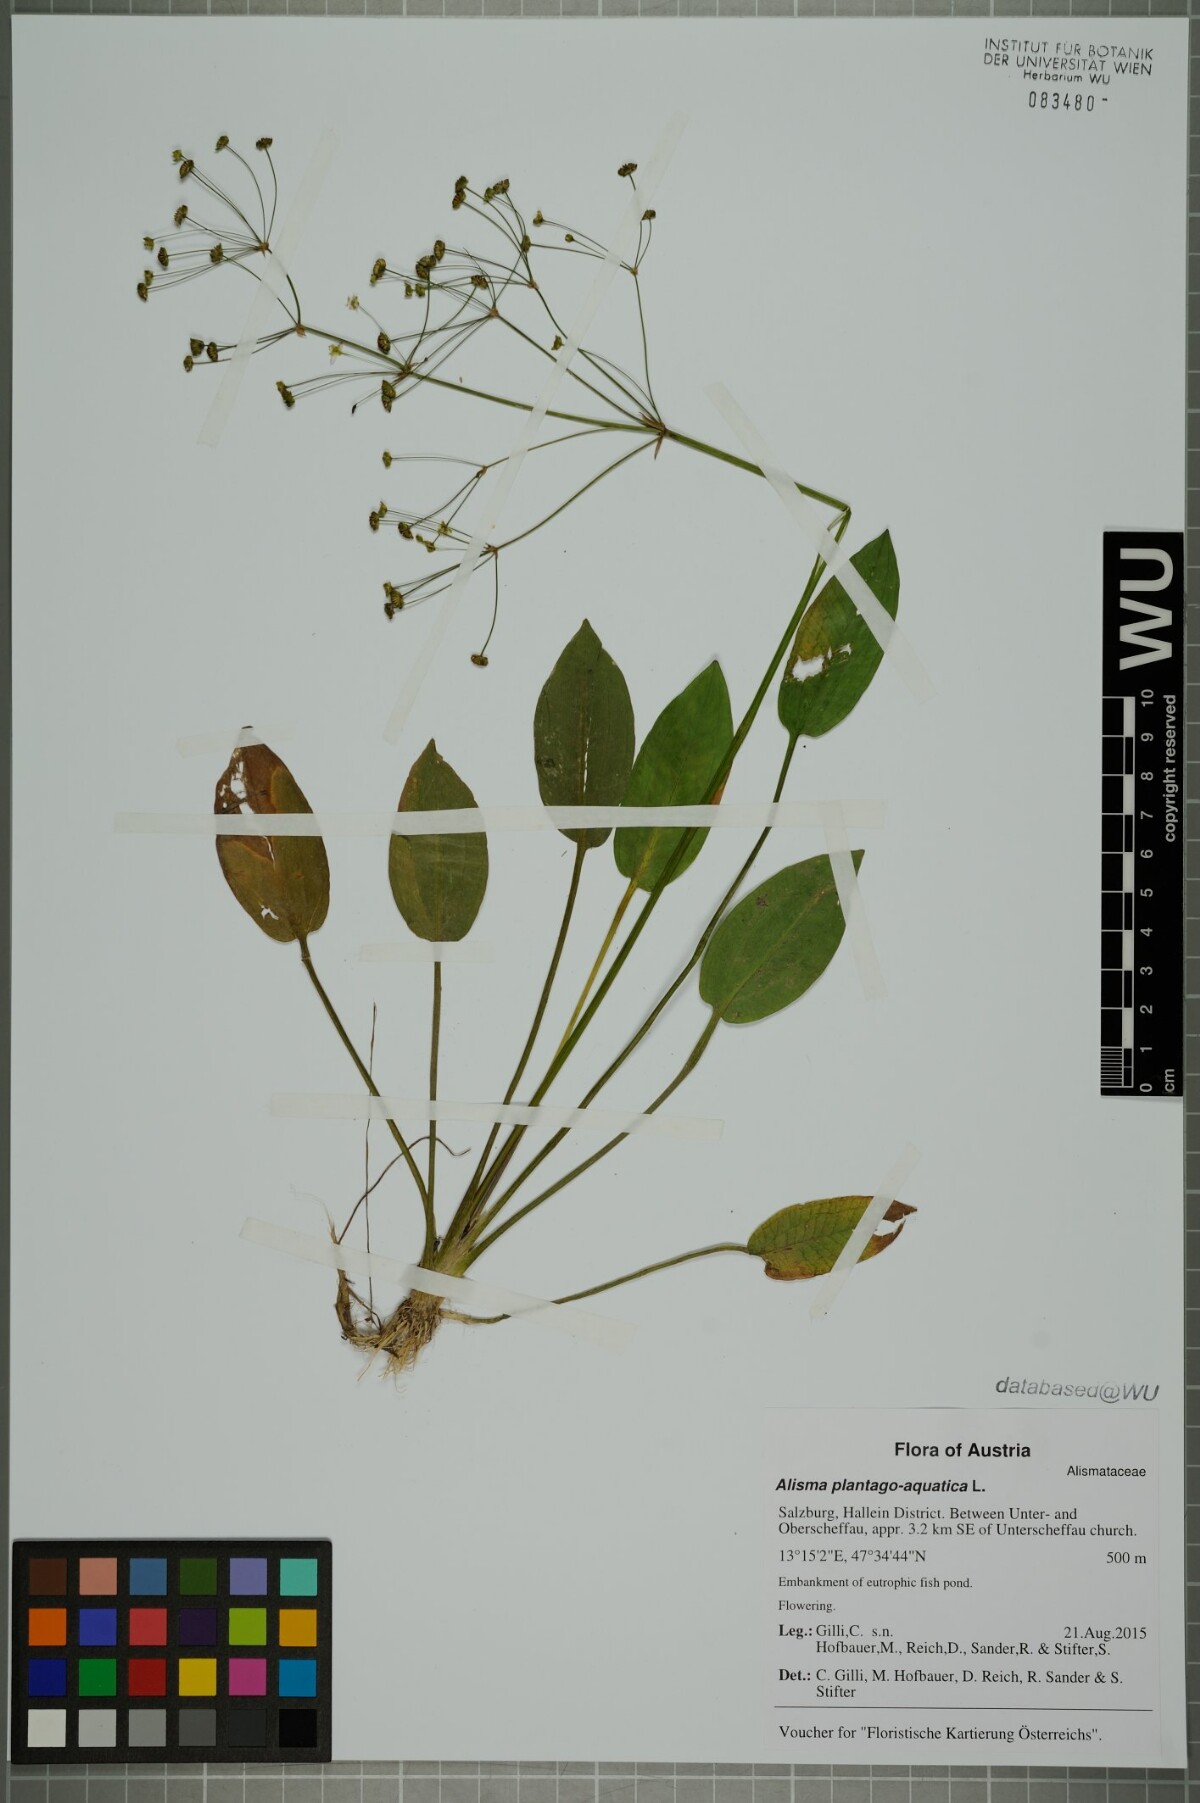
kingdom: Plantae
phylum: Tracheophyta
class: Liliopsida
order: Alismatales
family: Alismataceae
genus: Alisma
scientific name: Alisma plantago-aquatica
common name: Water-plantain
